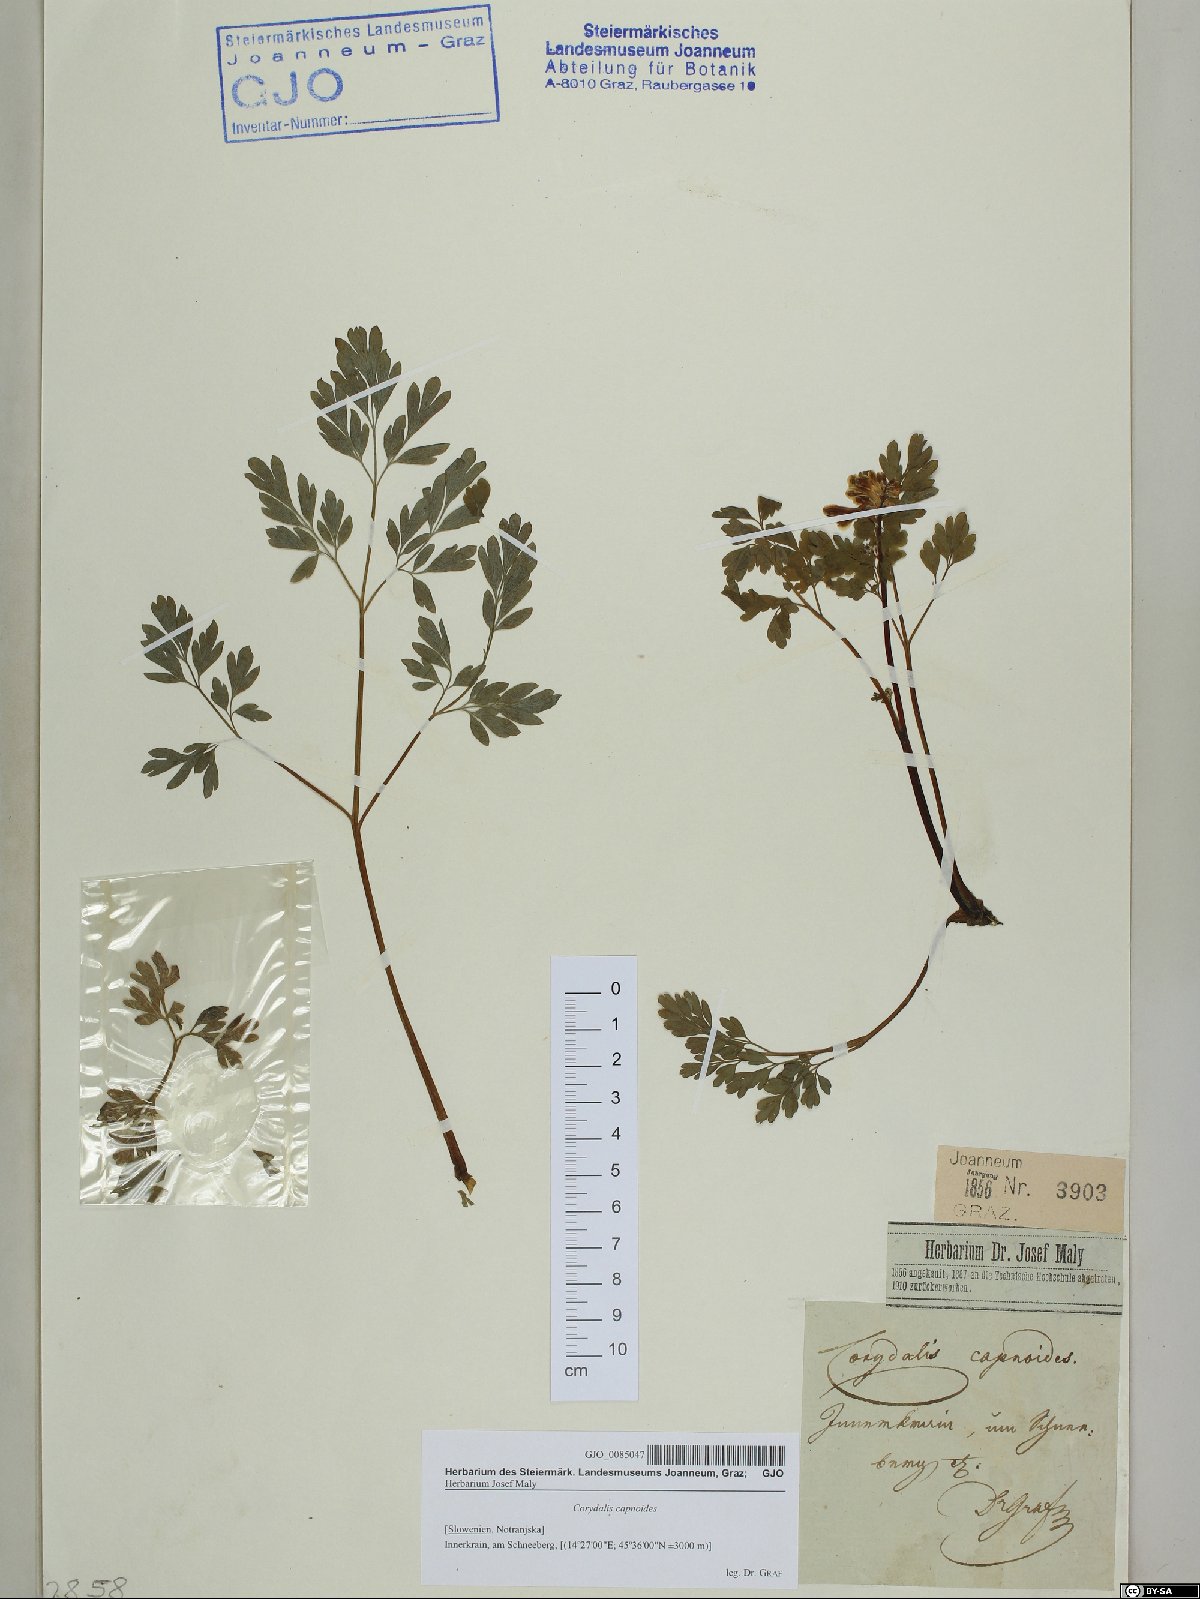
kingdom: Plantae
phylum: Tracheophyta
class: Magnoliopsida
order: Ranunculales
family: Papaveraceae
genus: Corydalis
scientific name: Corydalis capnoides
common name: Beaked corydalis
